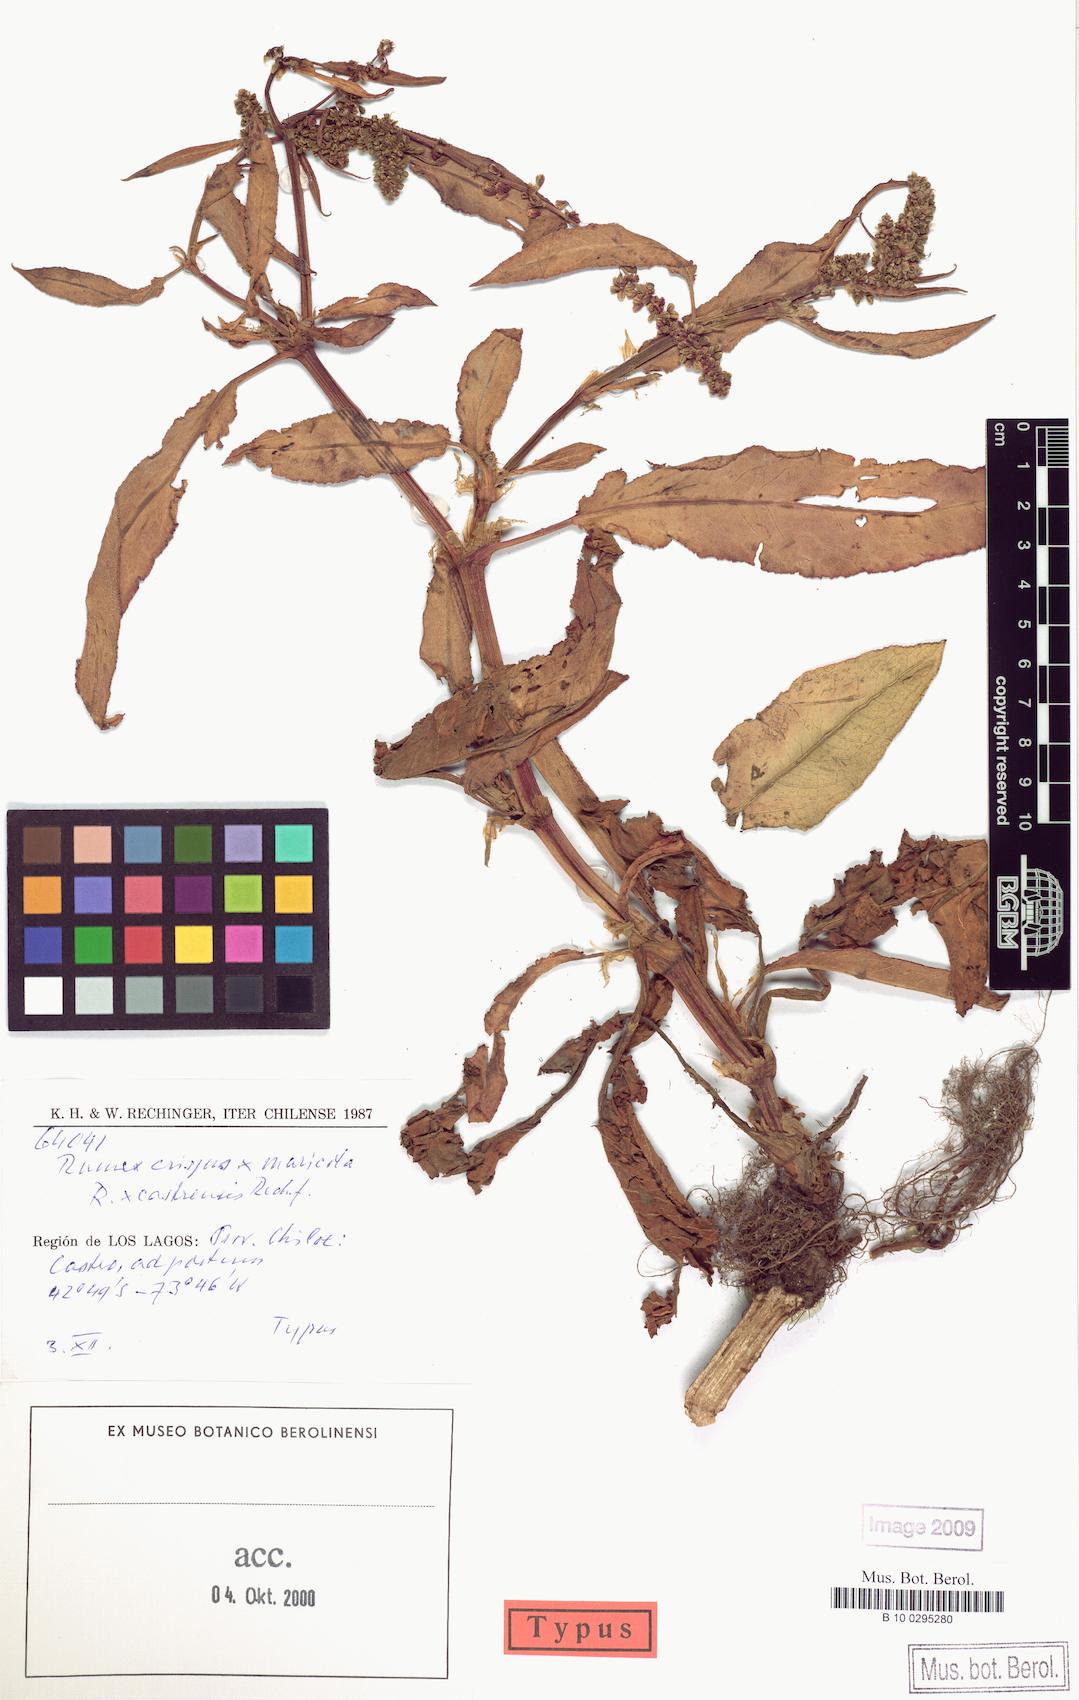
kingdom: Plantae
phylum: Tracheophyta
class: Magnoliopsida
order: Caryophyllales
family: Polygonaceae
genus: Rumex
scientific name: Rumex castrensis
